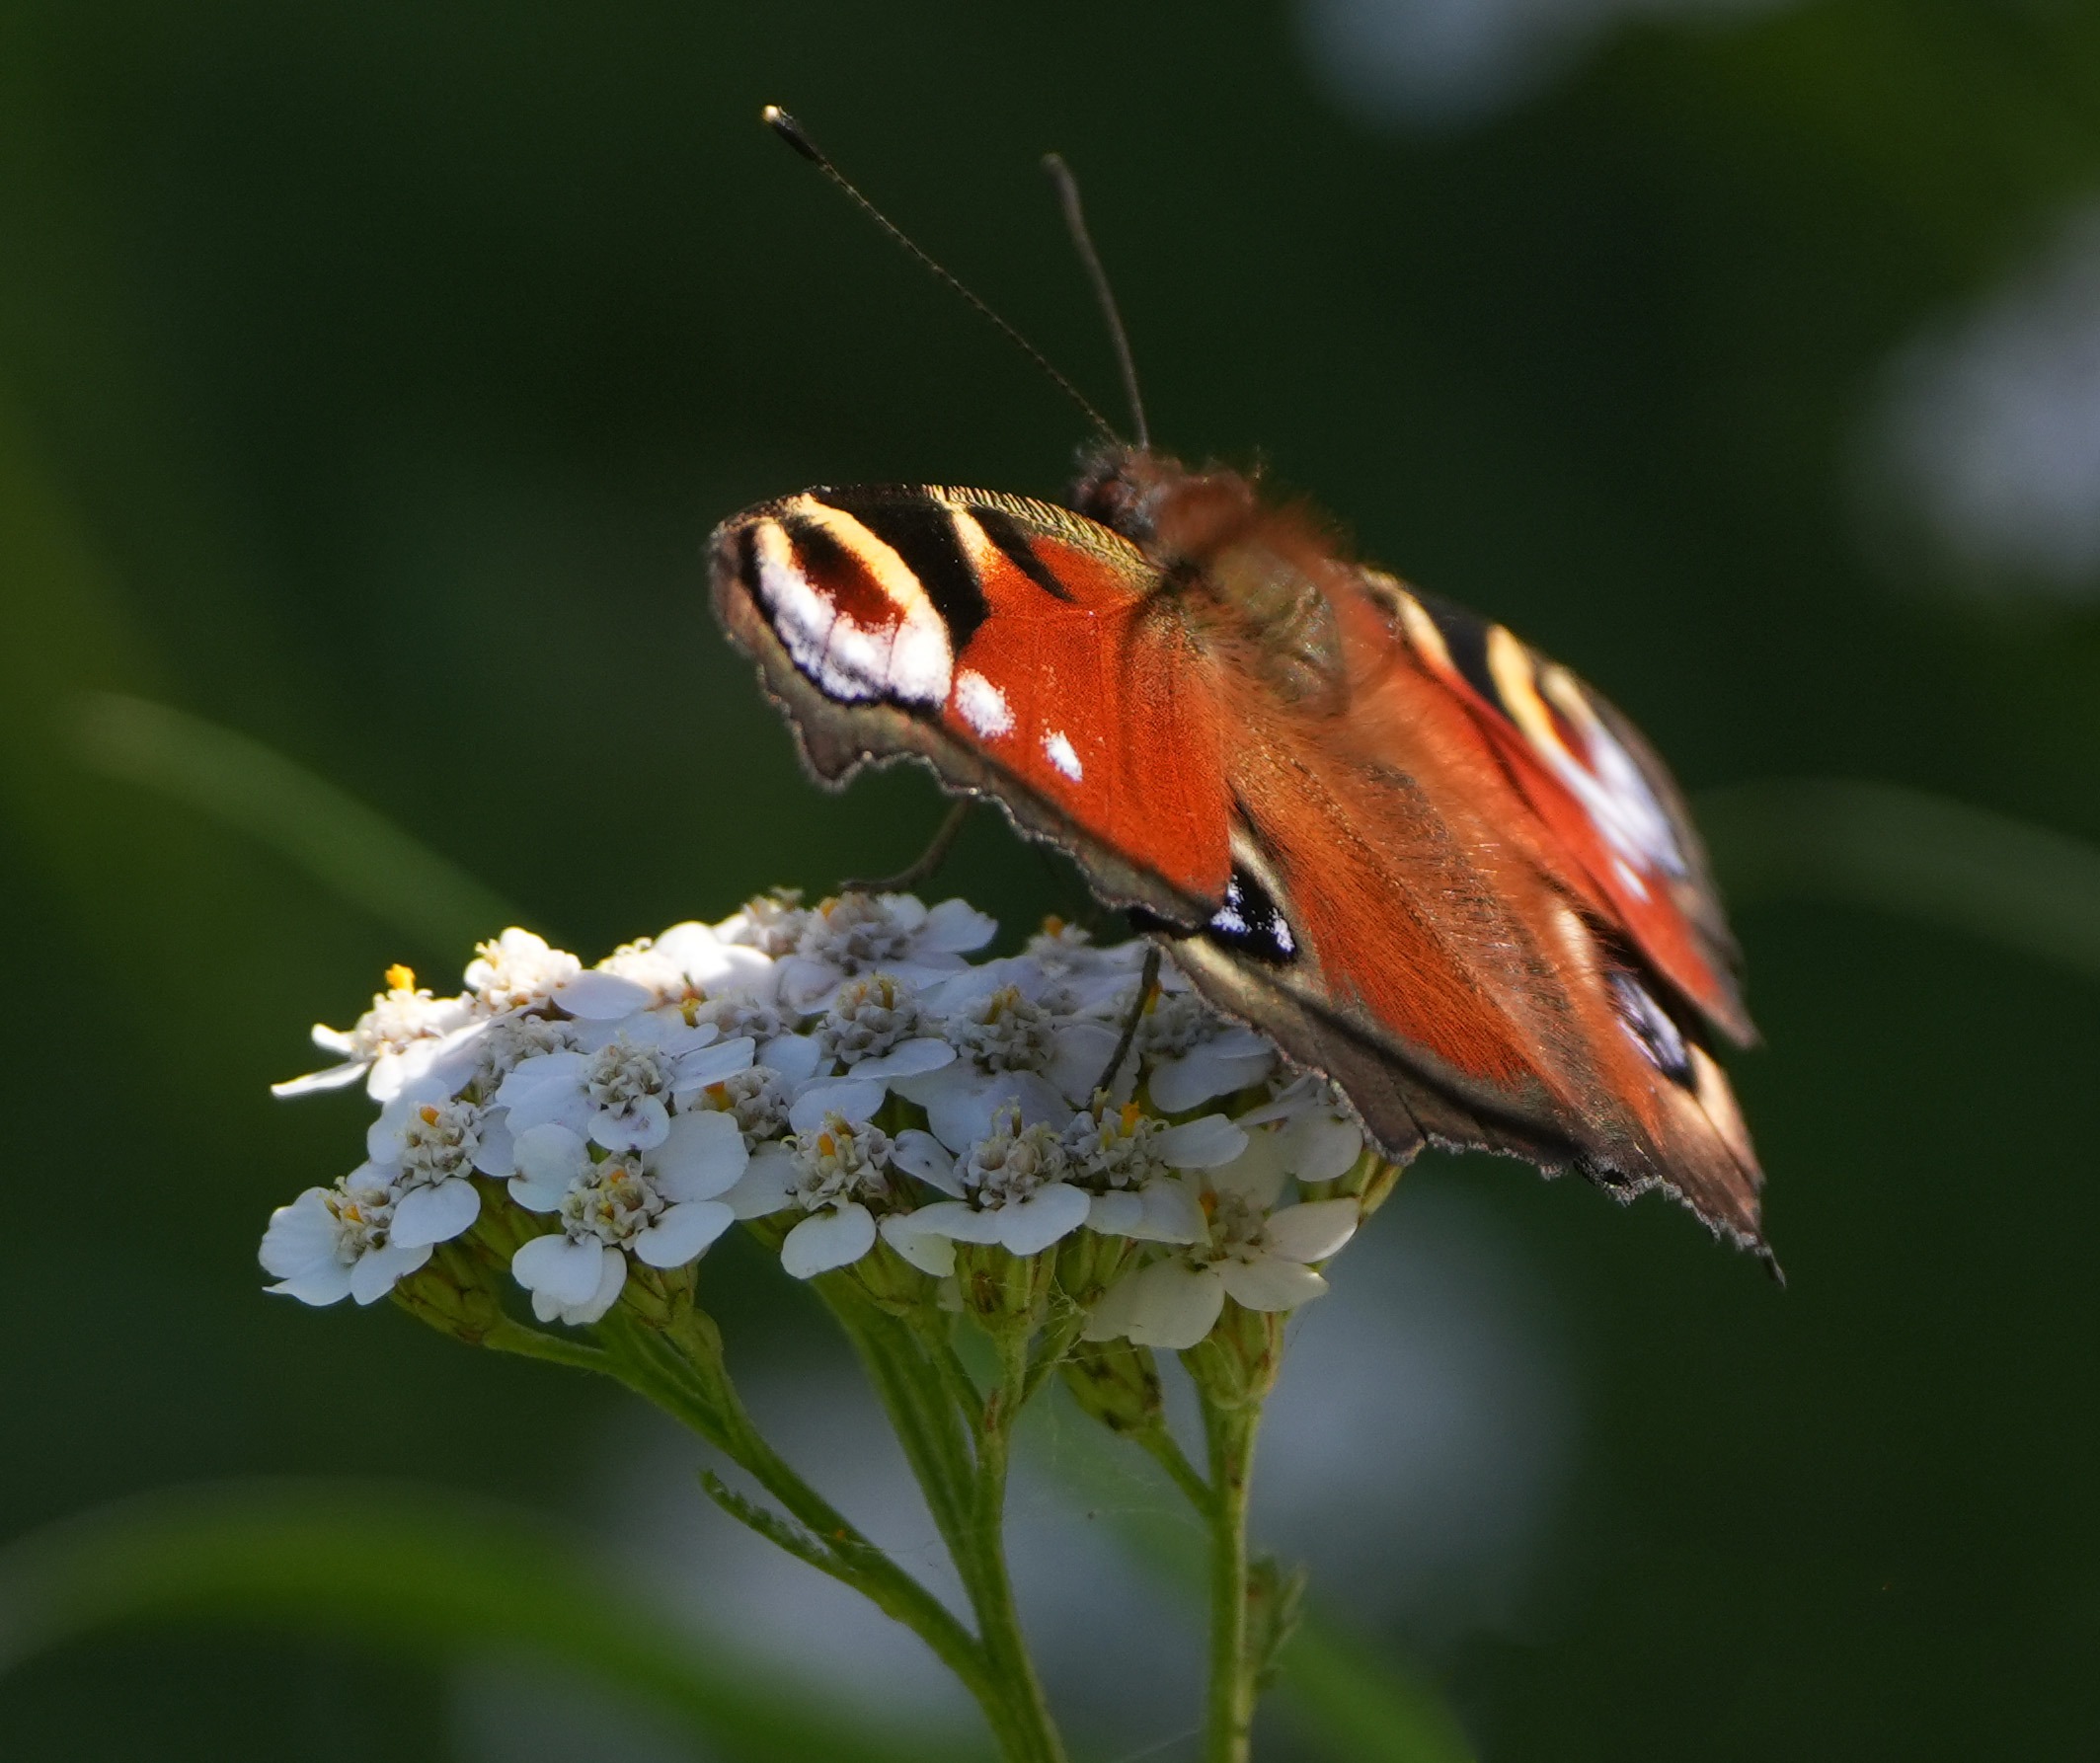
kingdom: Animalia
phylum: Arthropoda
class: Insecta
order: Lepidoptera
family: Nymphalidae
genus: Aglais
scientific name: Aglais io
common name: Dagpåfugleøje
